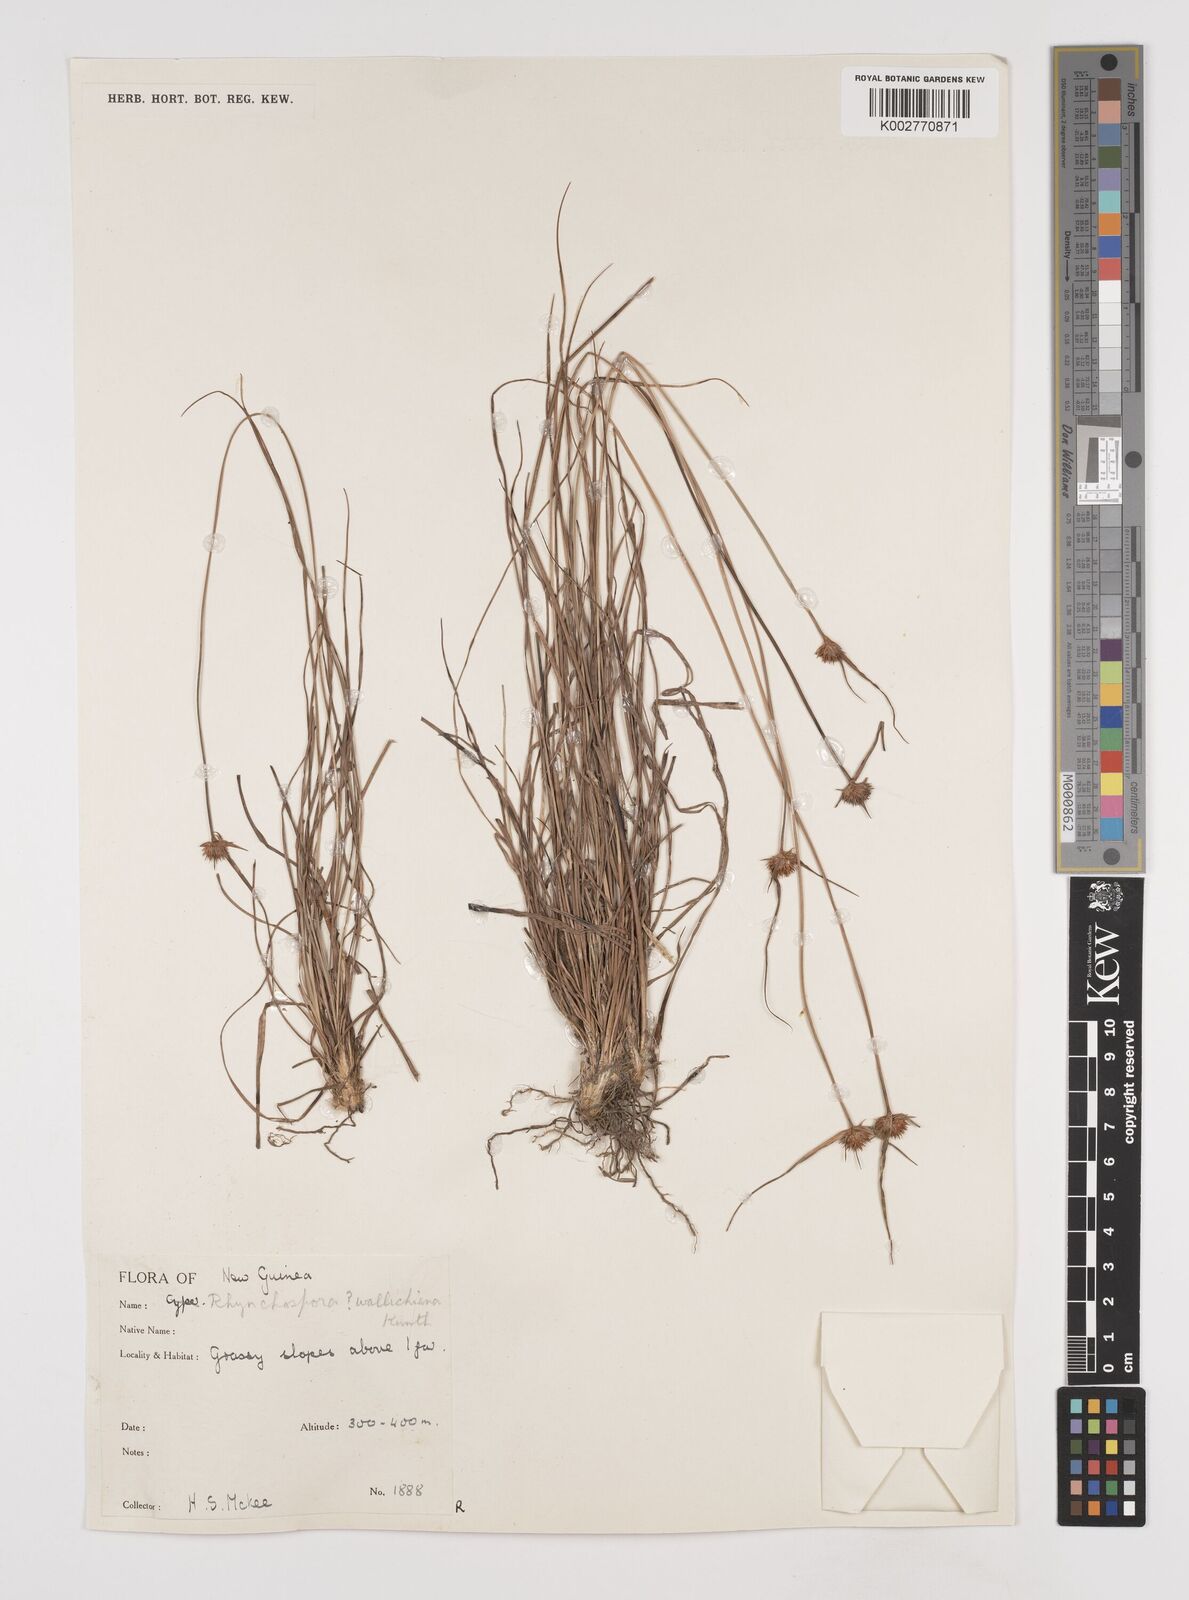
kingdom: Plantae
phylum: Tracheophyta
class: Liliopsida
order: Poales
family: Cyperaceae
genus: Rhynchospora
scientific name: Rhynchospora rubra
